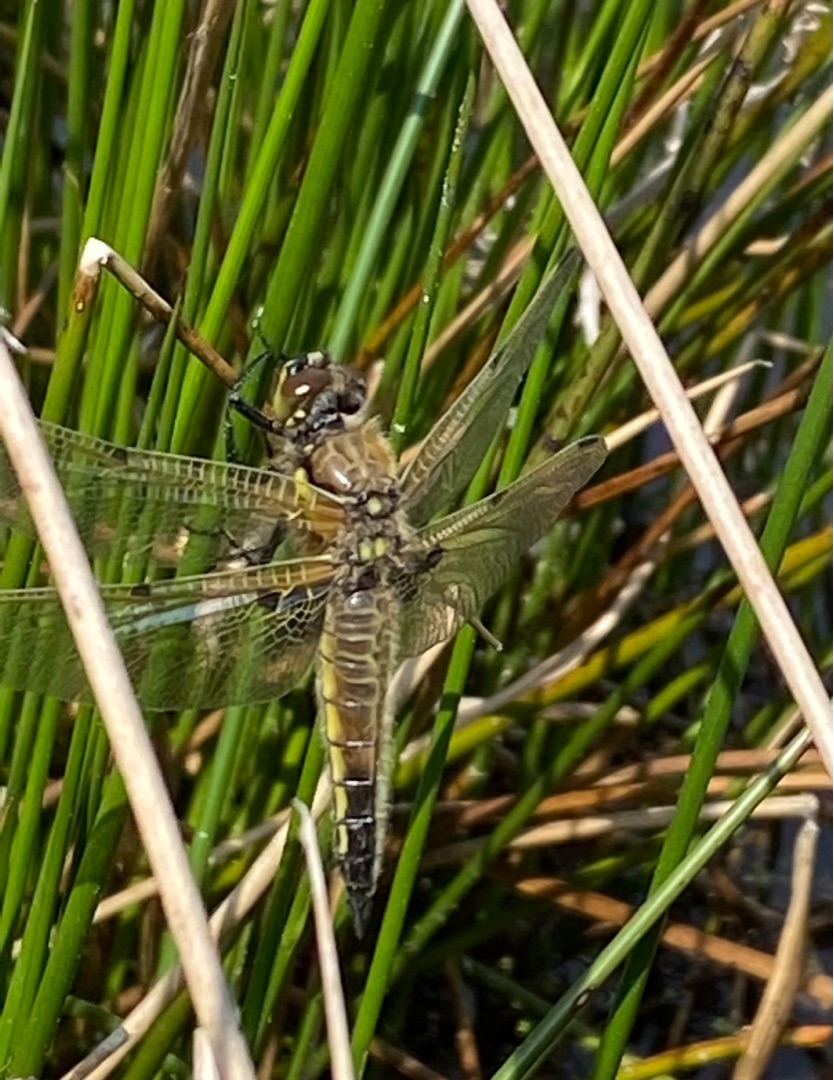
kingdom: Animalia
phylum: Arthropoda
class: Insecta
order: Odonata
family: Libellulidae
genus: Libellula
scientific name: Libellula quadrimaculata
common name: Fireplettet libel
